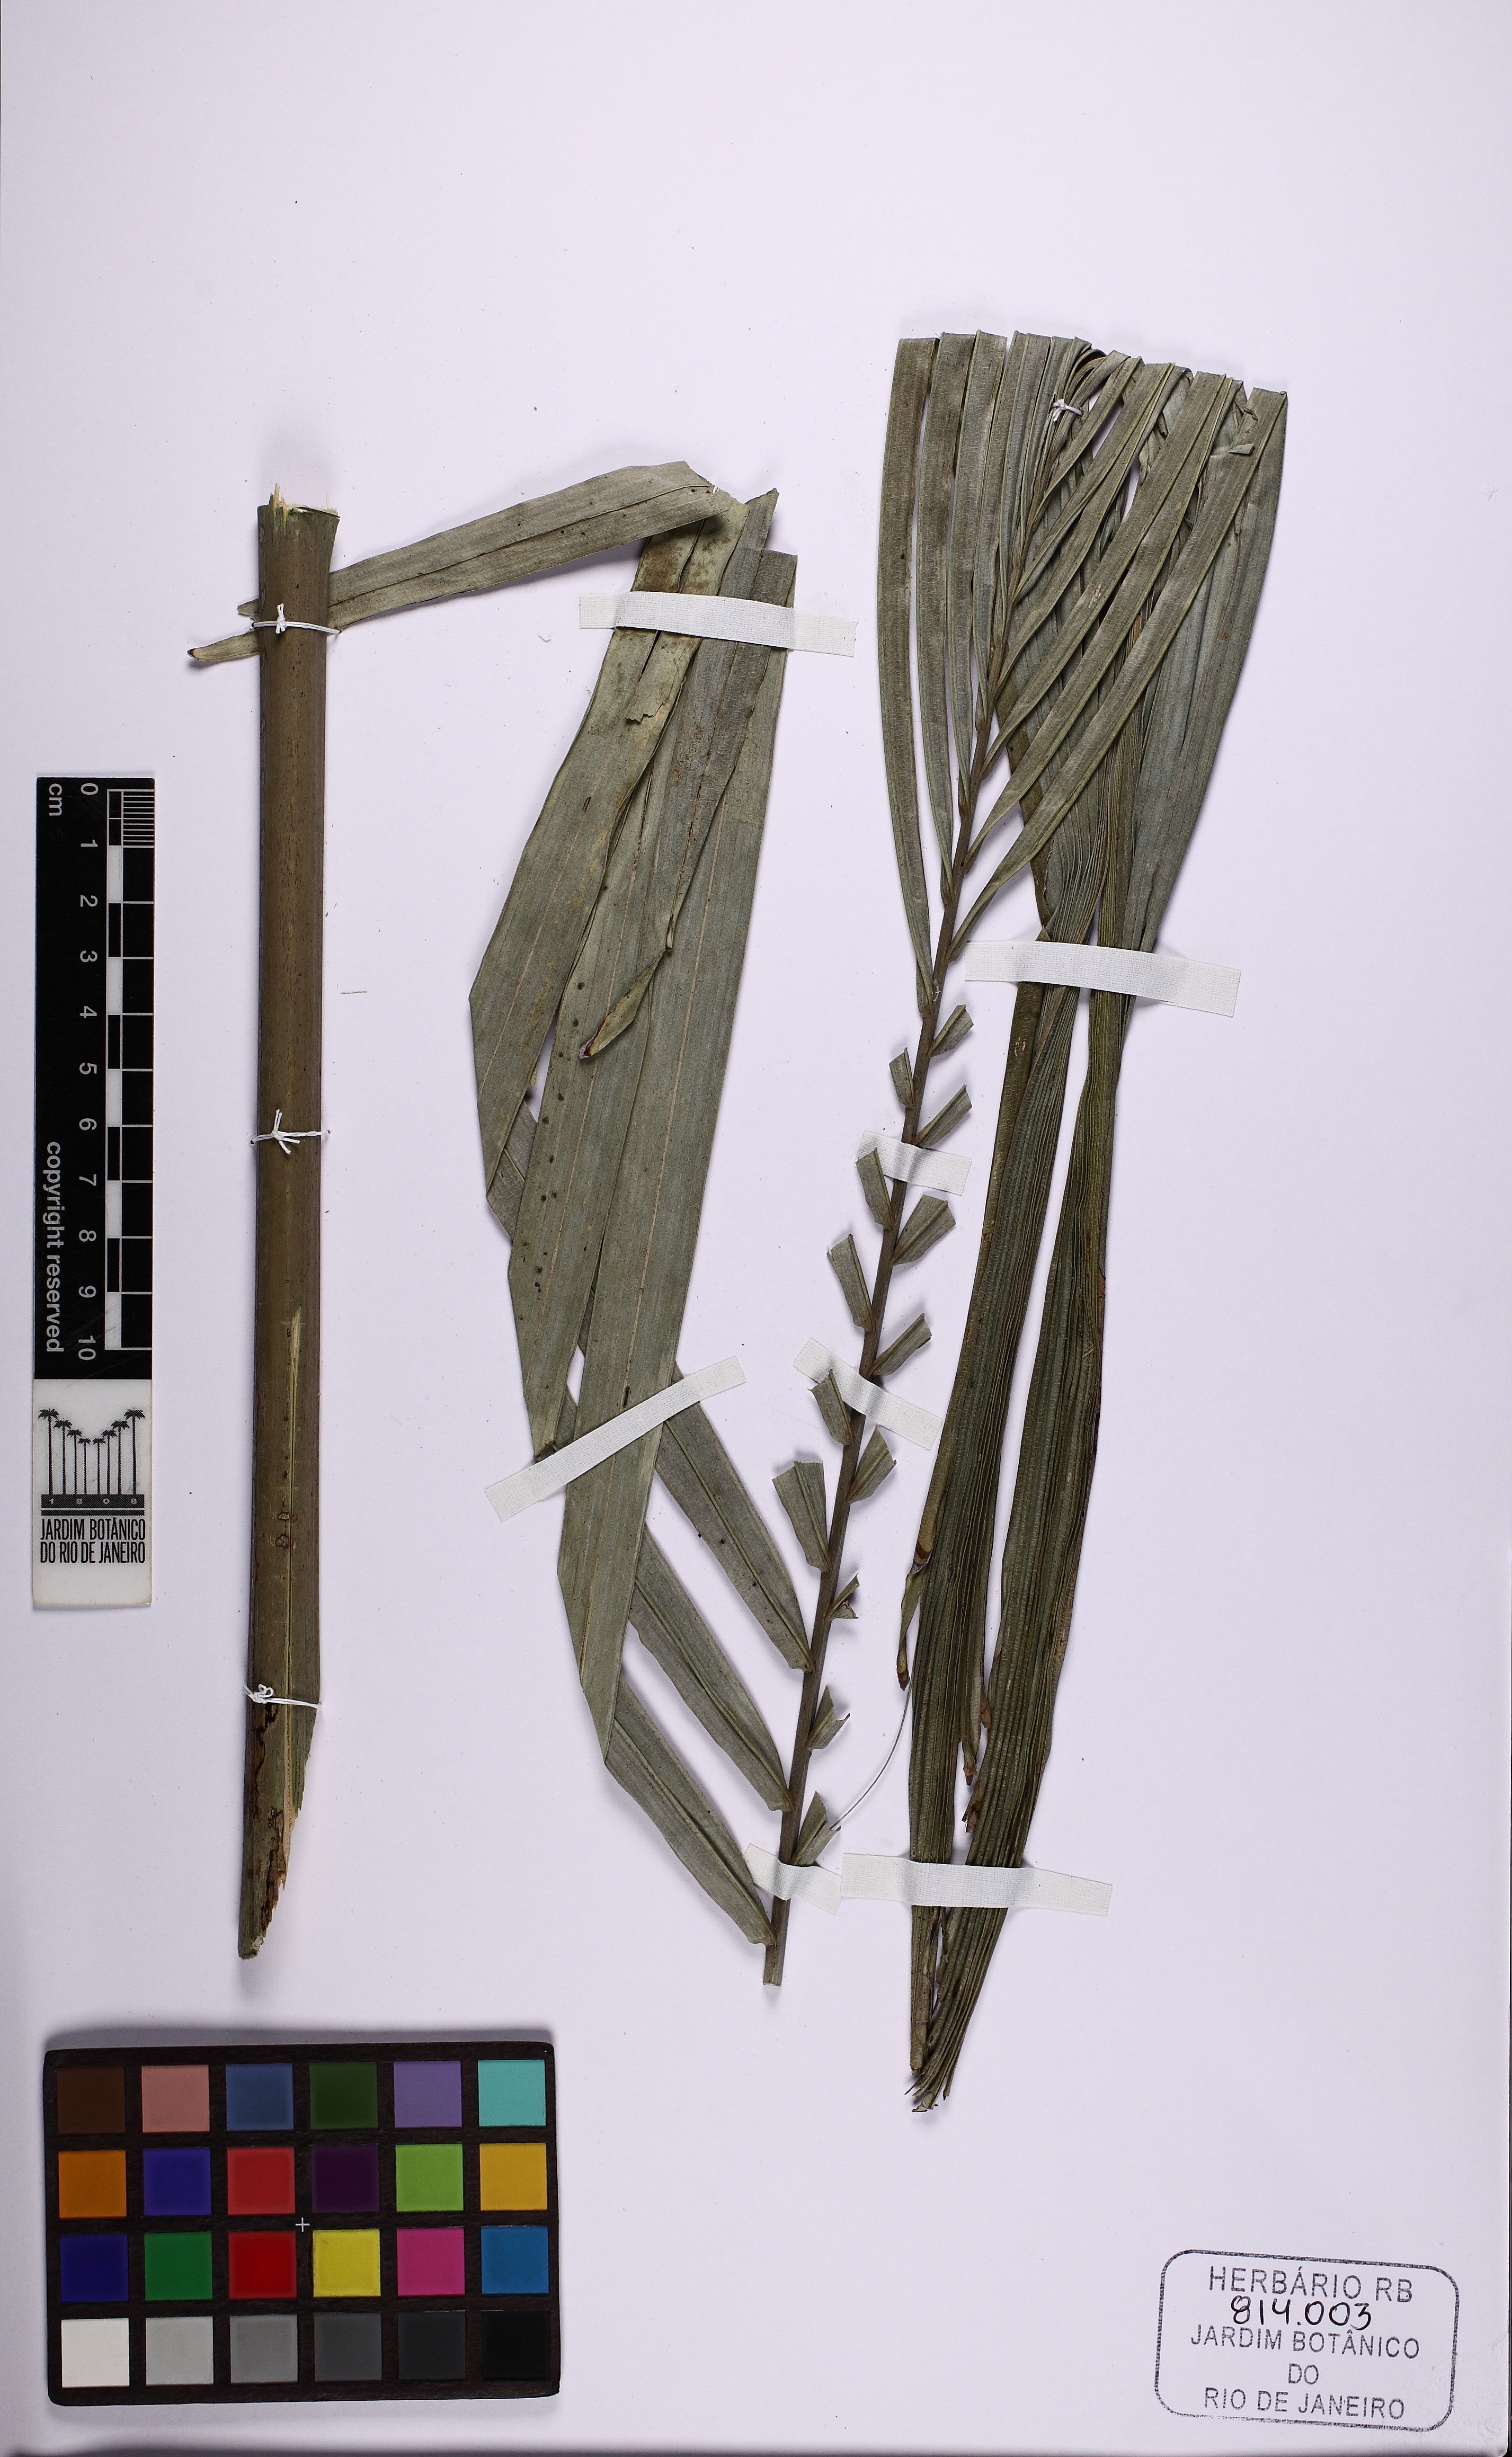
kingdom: Plantae
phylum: Tracheophyta
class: Liliopsida
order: Arecales
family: Arecaceae
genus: Attalea
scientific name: Attalea
